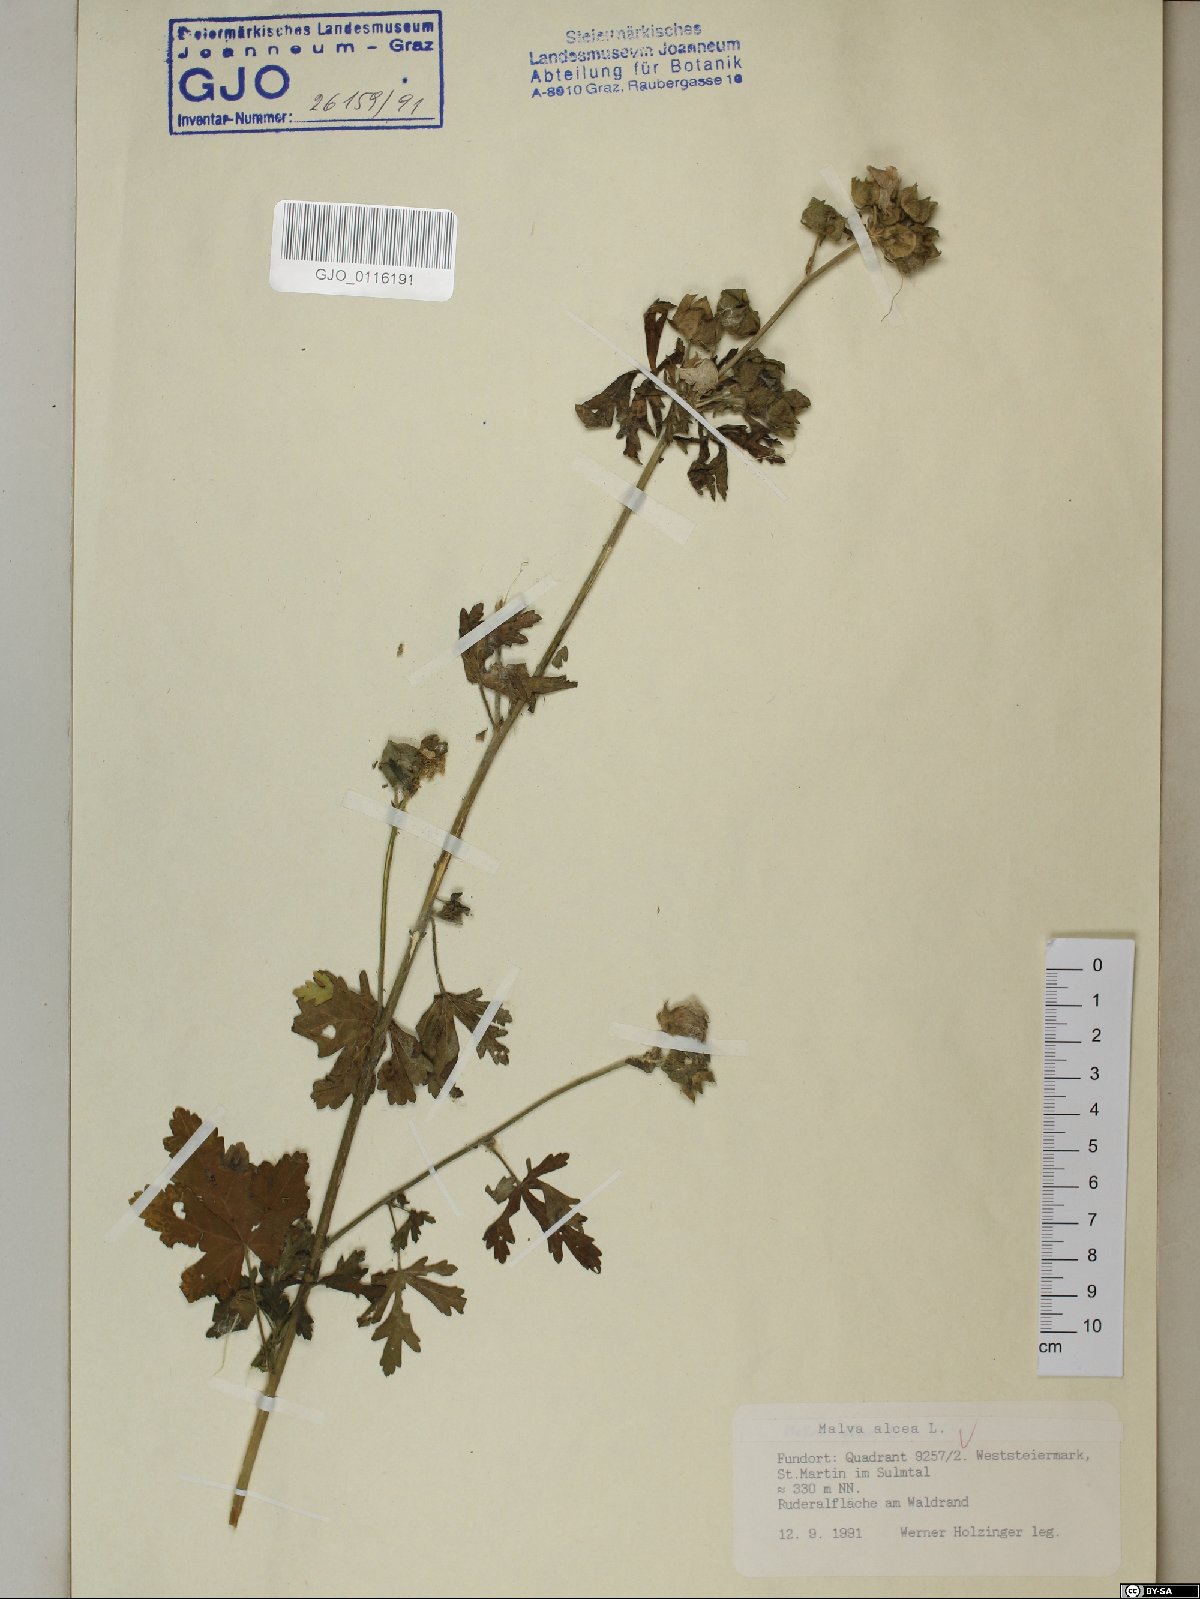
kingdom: Plantae
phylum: Tracheophyta
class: Magnoliopsida
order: Malvales
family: Malvaceae
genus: Malva
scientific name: Malva alcea
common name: Greater musk-mallow
